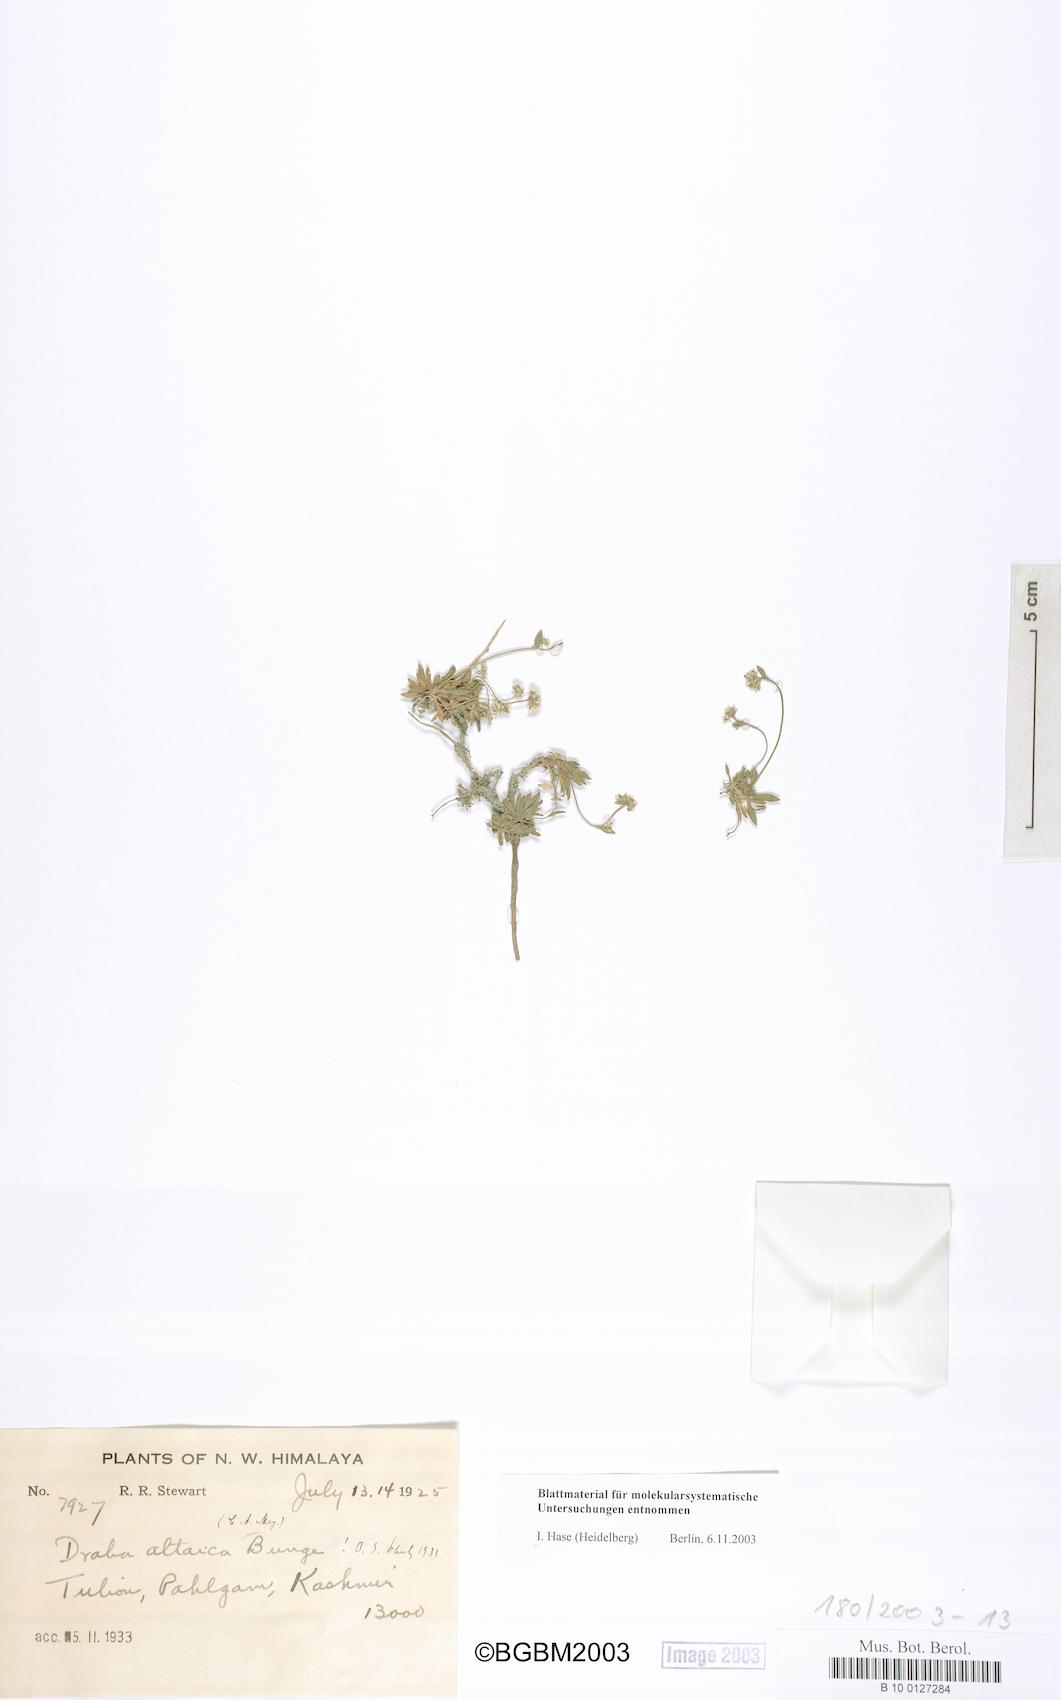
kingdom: Plantae
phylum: Tracheophyta
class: Magnoliopsida
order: Brassicales
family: Brassicaceae
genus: Draba
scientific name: Draba altaica
